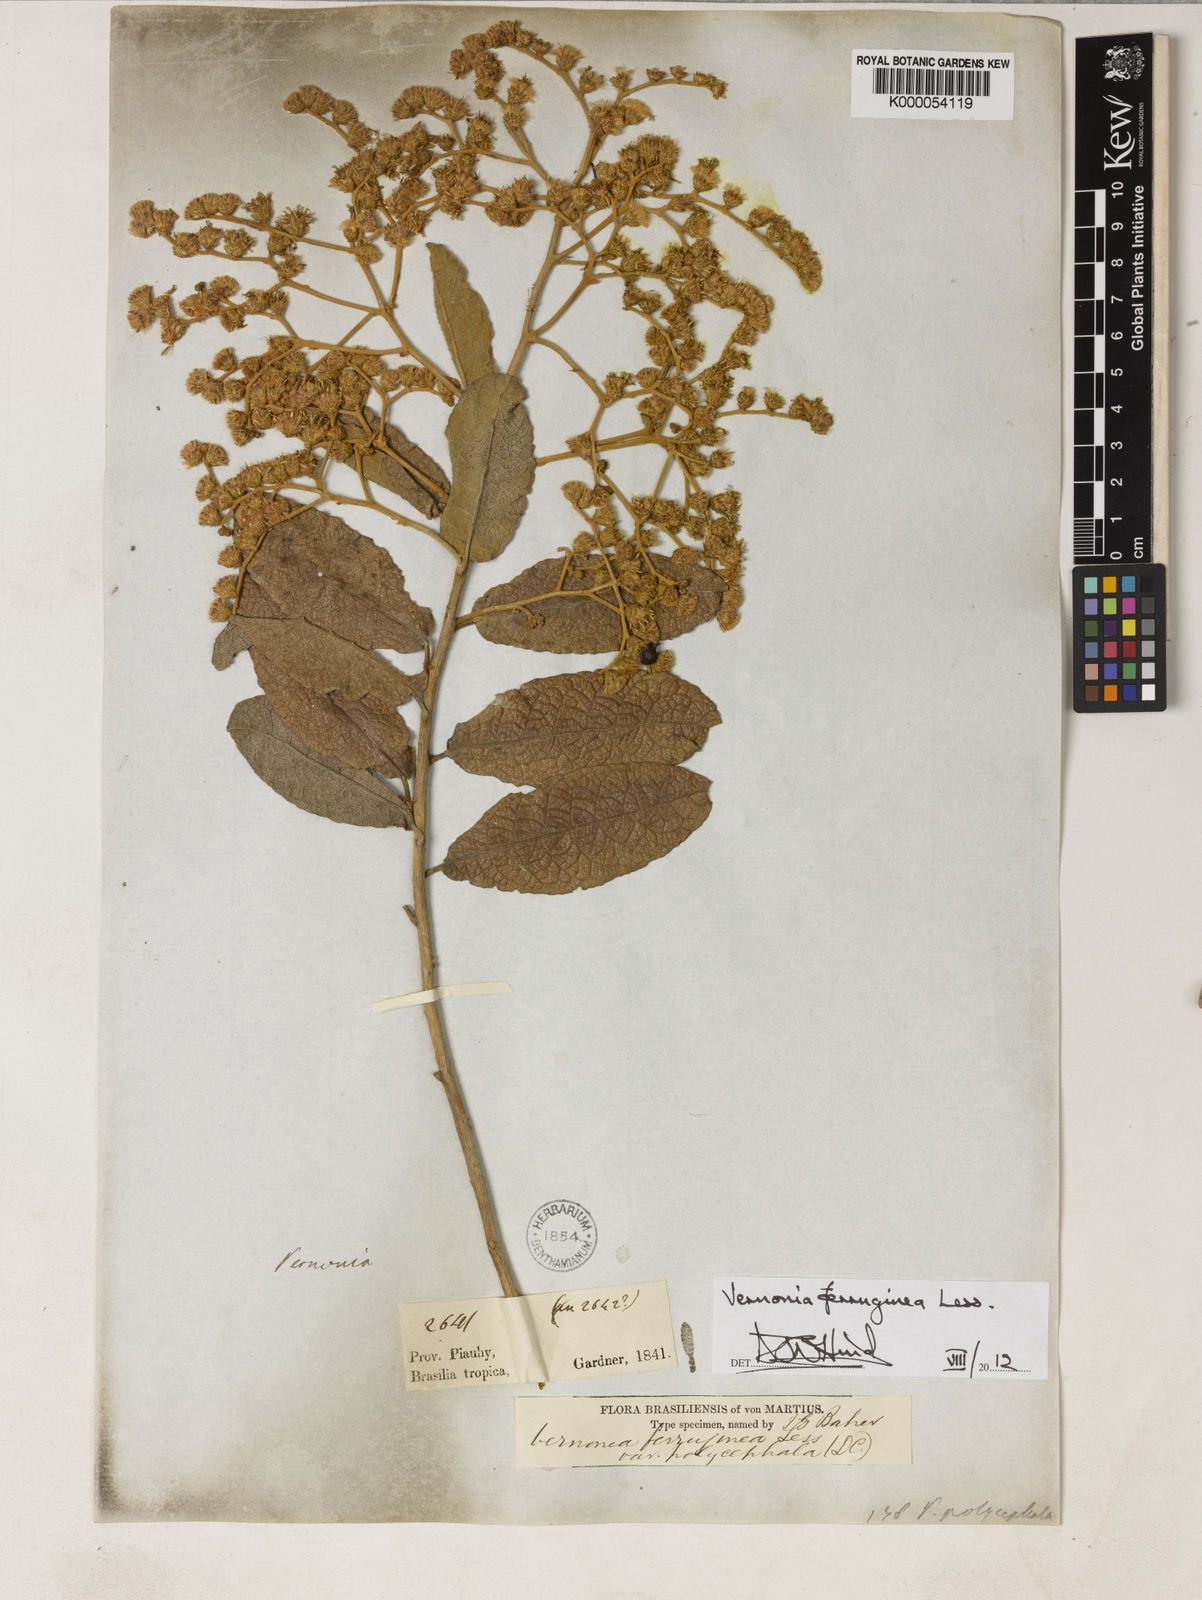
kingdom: Plantae
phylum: Tracheophyta
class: Magnoliopsida
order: Asterales
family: Asteraceae
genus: Vernonanthura
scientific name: Vernonanthura ferruginea
